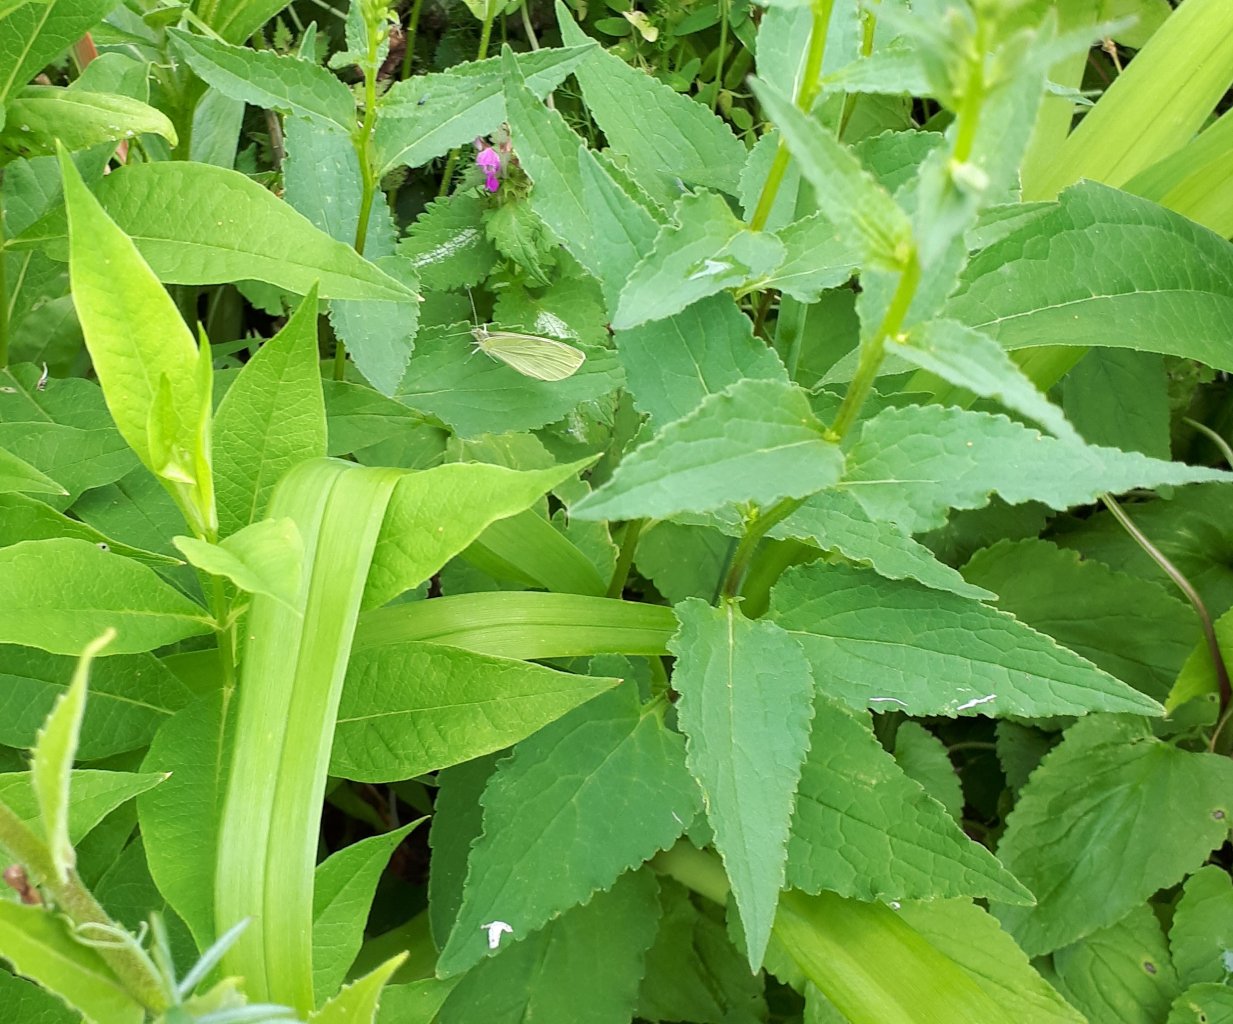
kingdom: Animalia
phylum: Arthropoda
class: Insecta
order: Lepidoptera
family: Pieridae
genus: Pieris
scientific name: Pieris rapae
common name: Cabbage White
